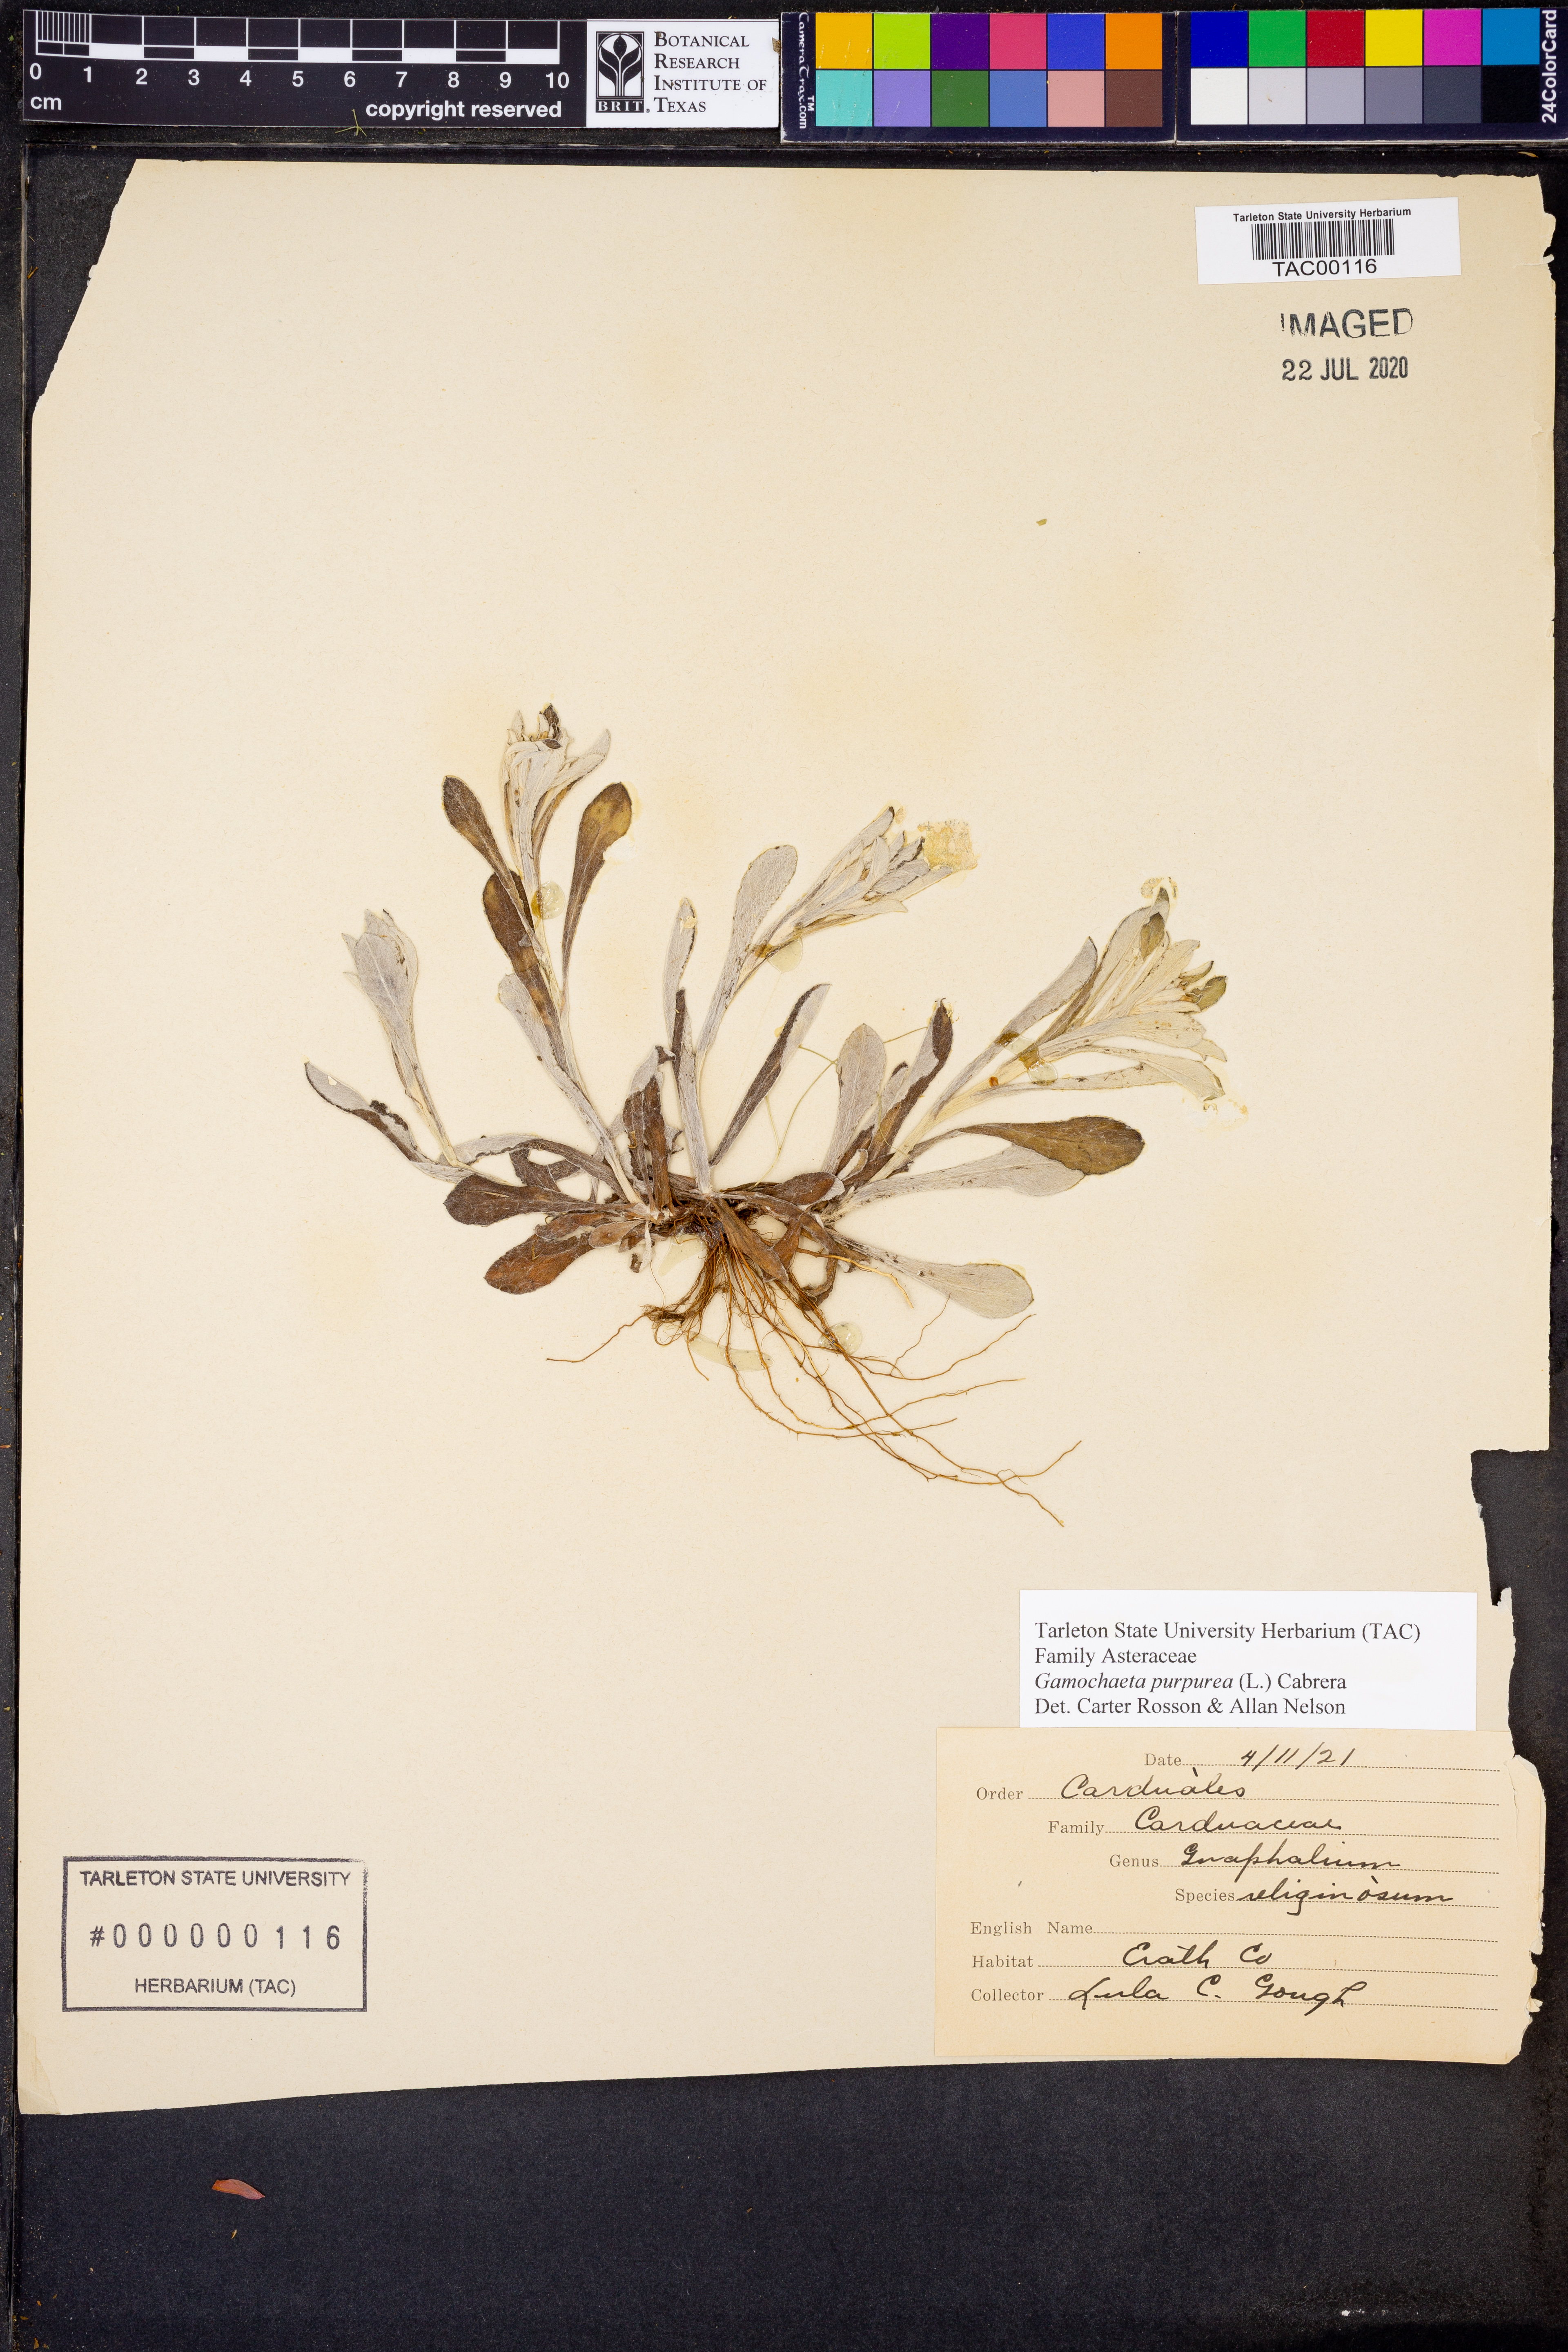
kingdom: Plantae
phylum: Tracheophyta
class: Magnoliopsida
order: Asterales
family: Asteraceae
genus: Gamochaeta
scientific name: Gamochaeta purpurea
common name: Purple cudweed
